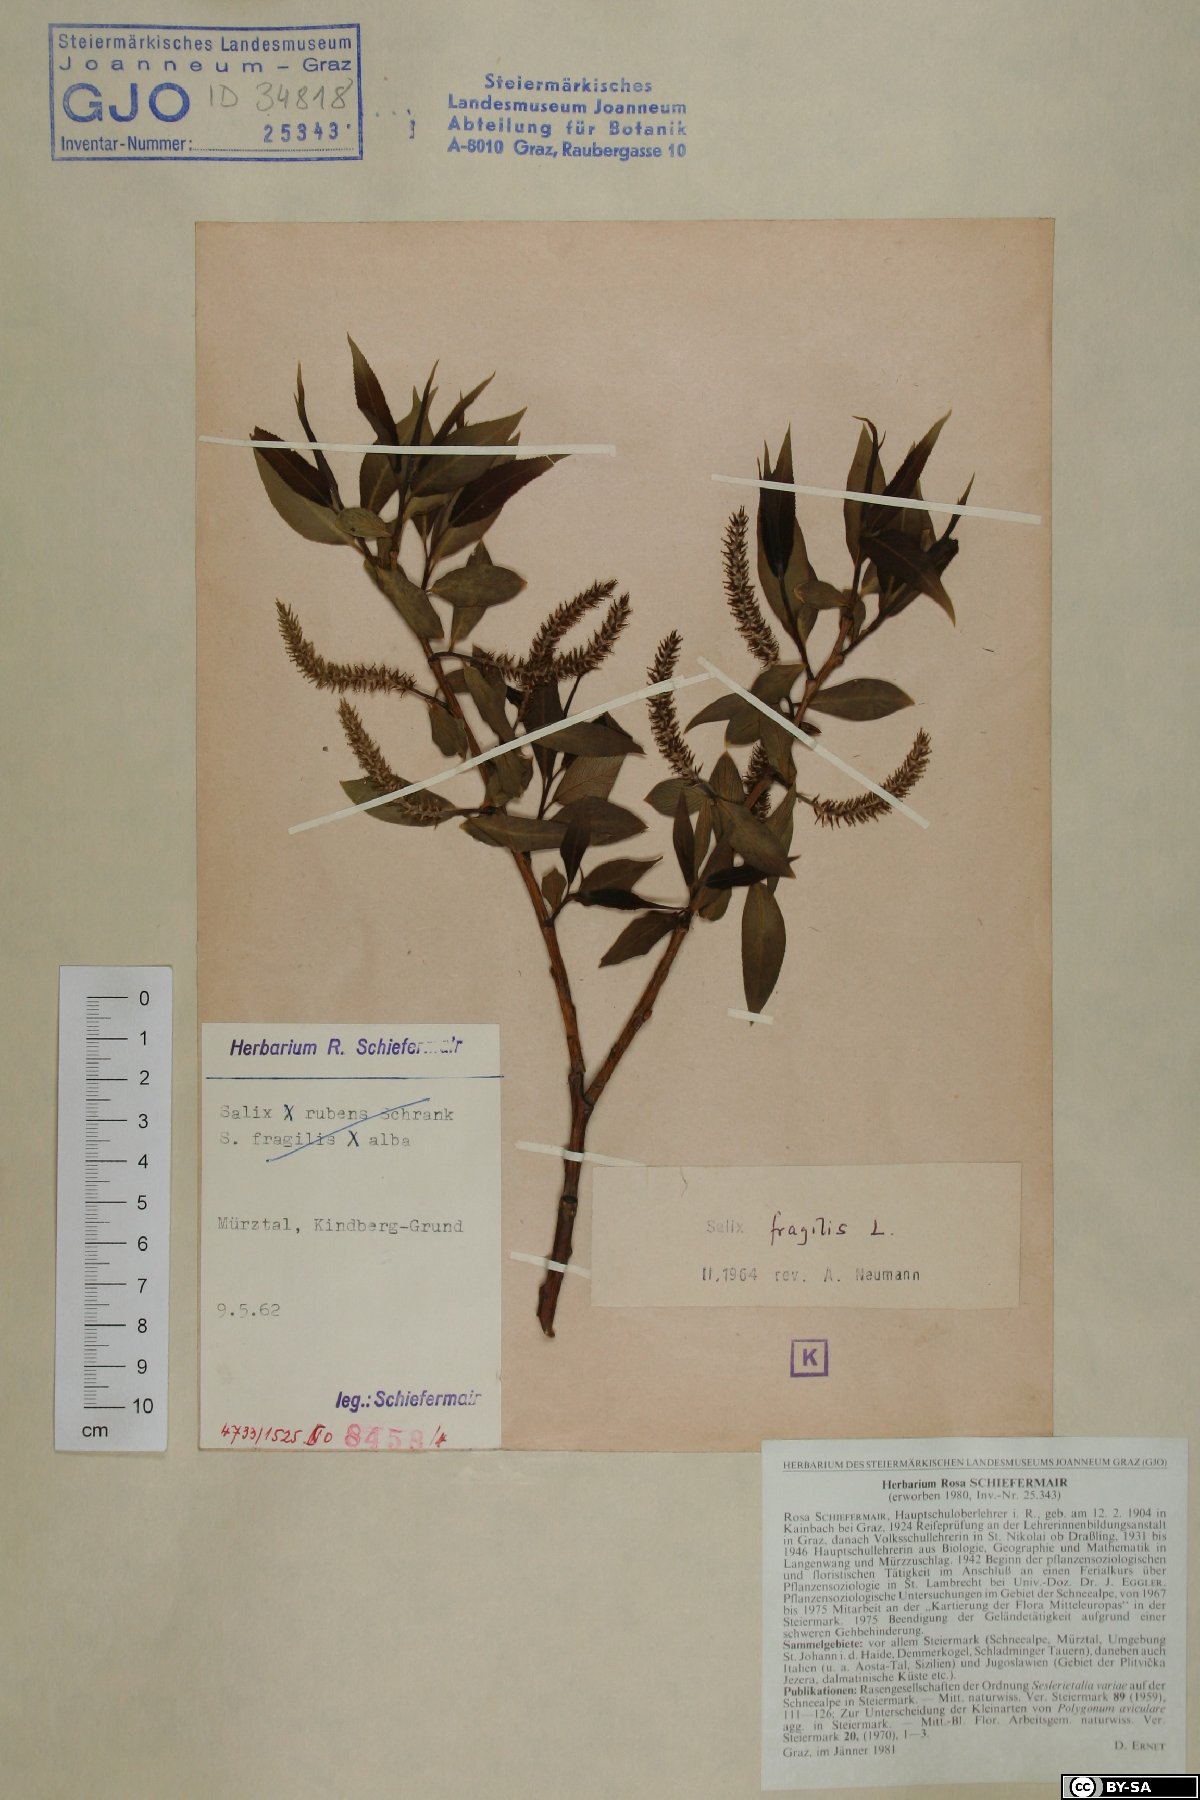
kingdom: Plantae
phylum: Tracheophyta
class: Magnoliopsida
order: Malpighiales
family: Salicaceae
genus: Salix
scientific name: Salix fragilis
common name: Crack willow
